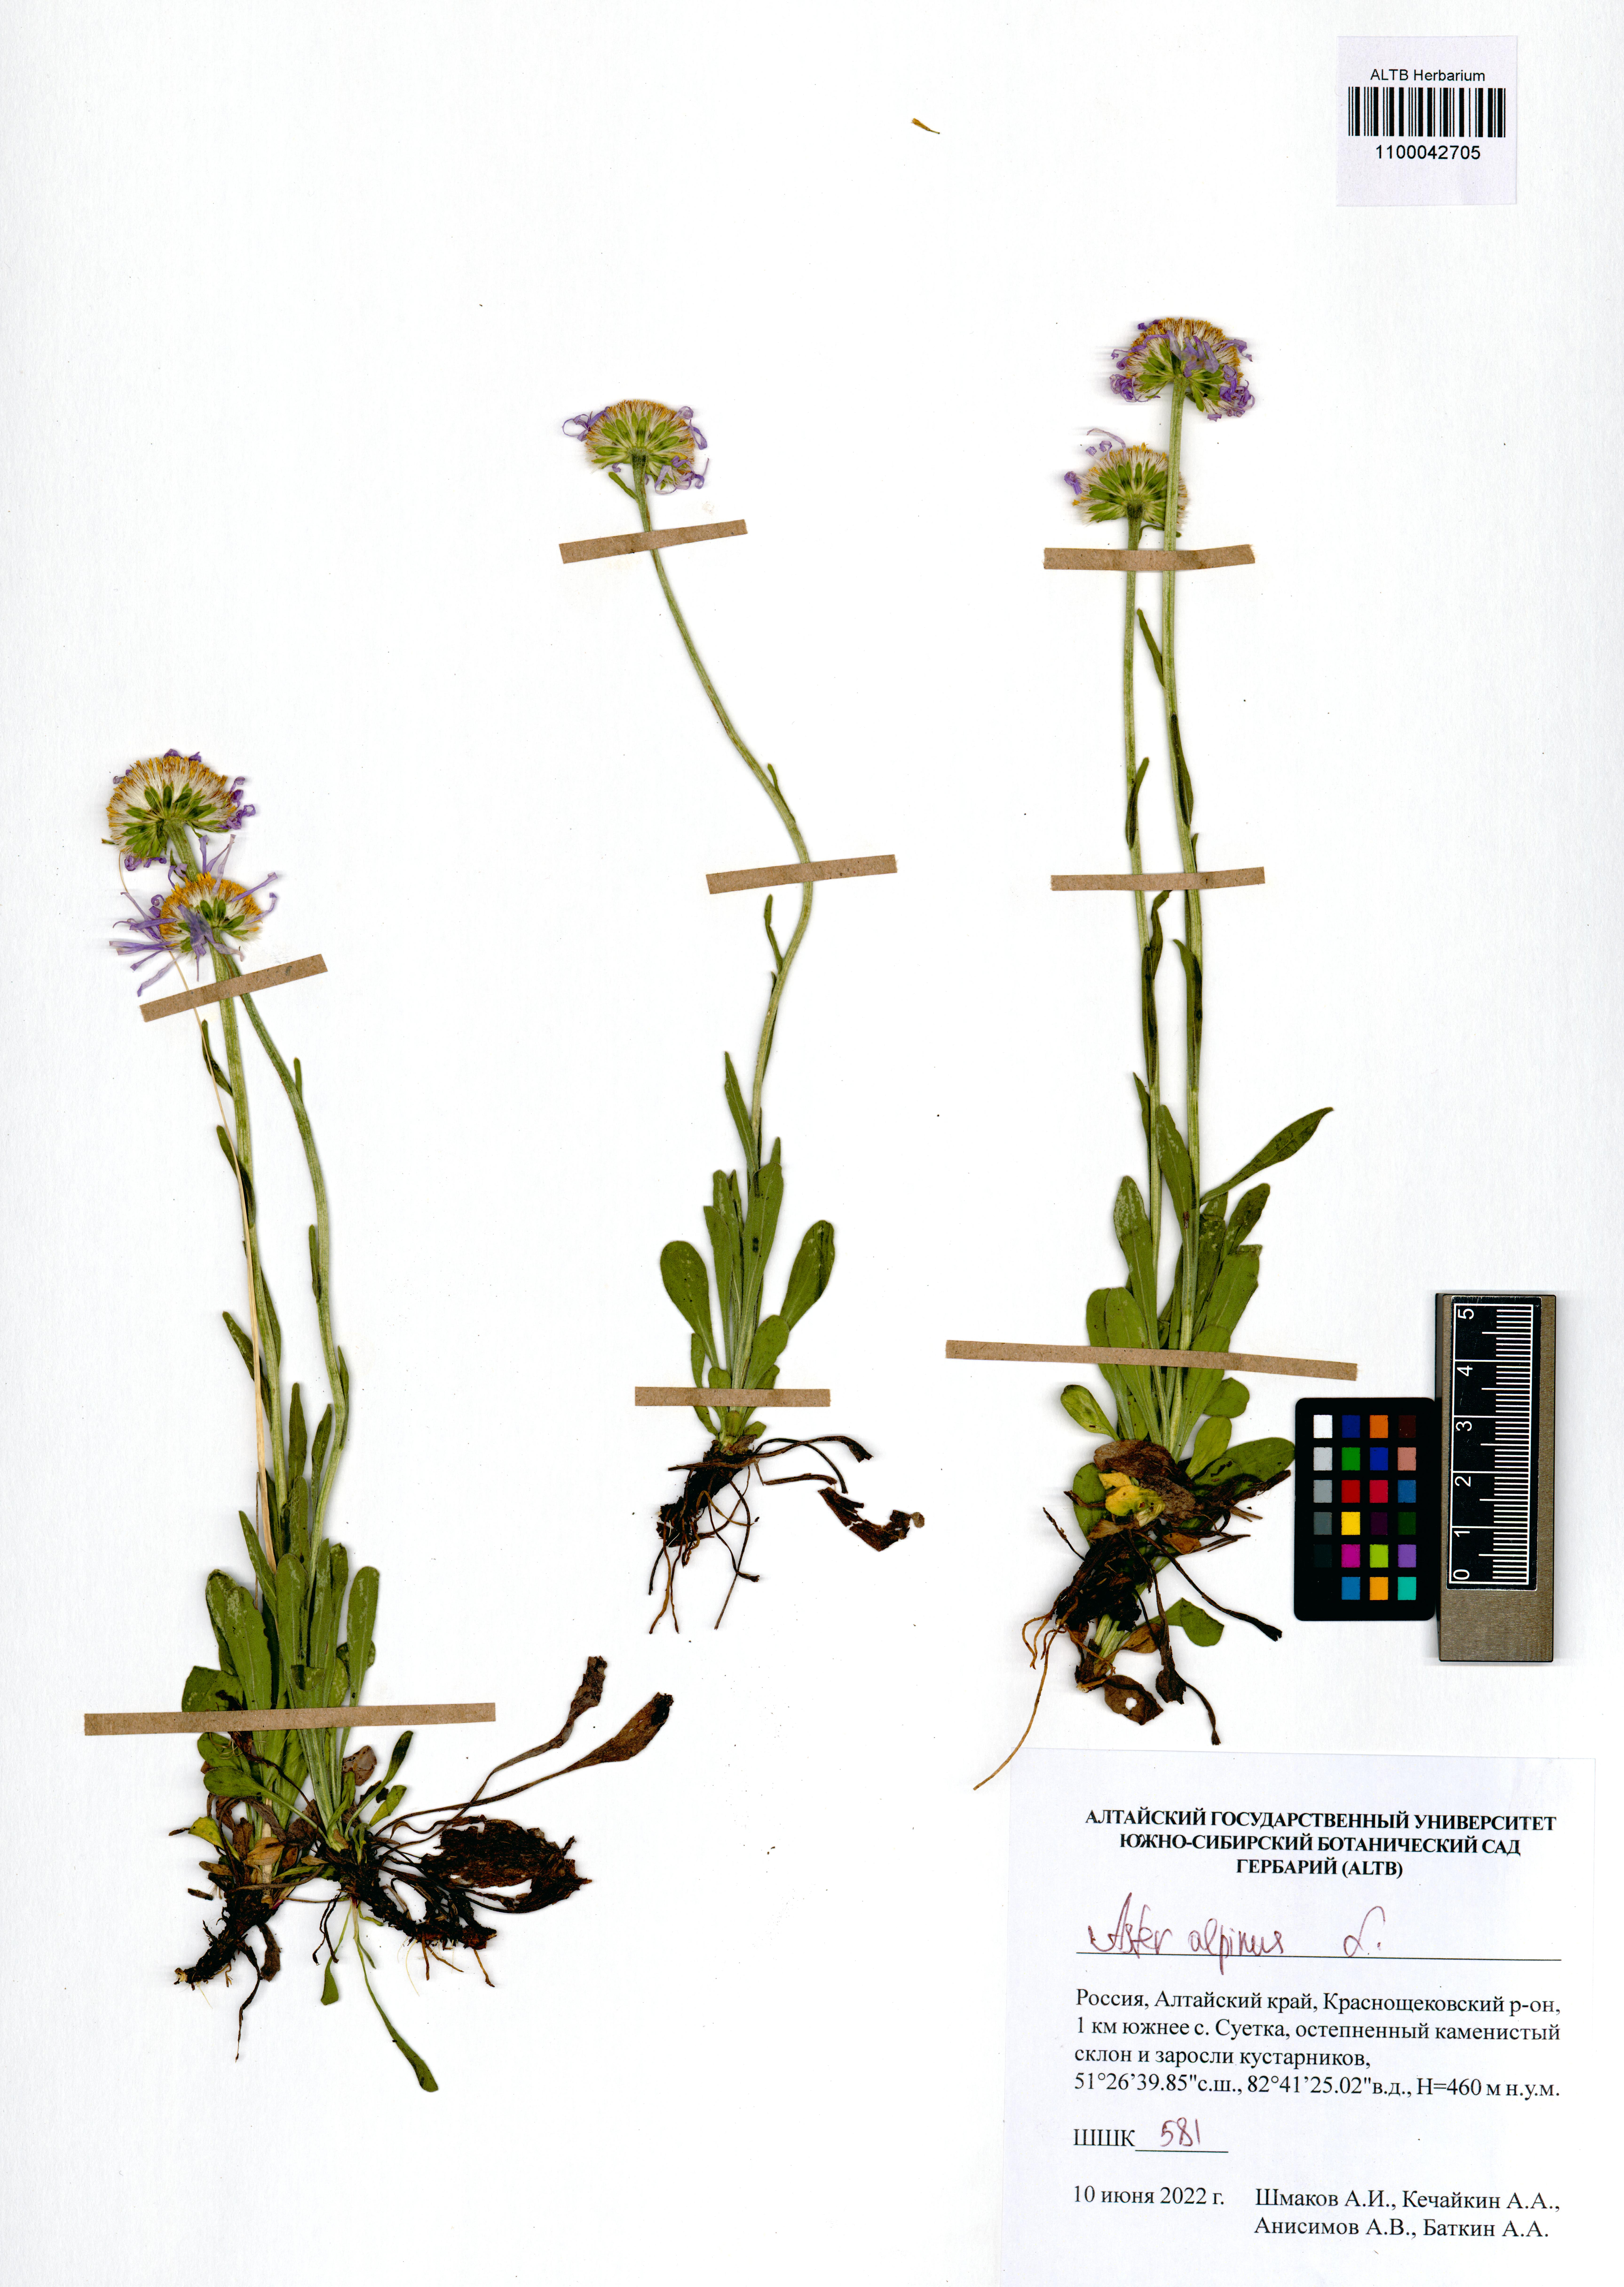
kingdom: Plantae
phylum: Tracheophyta
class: Magnoliopsida
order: Asterales
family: Asteraceae
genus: Aster
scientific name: Aster alpinus
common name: Alpine aster
